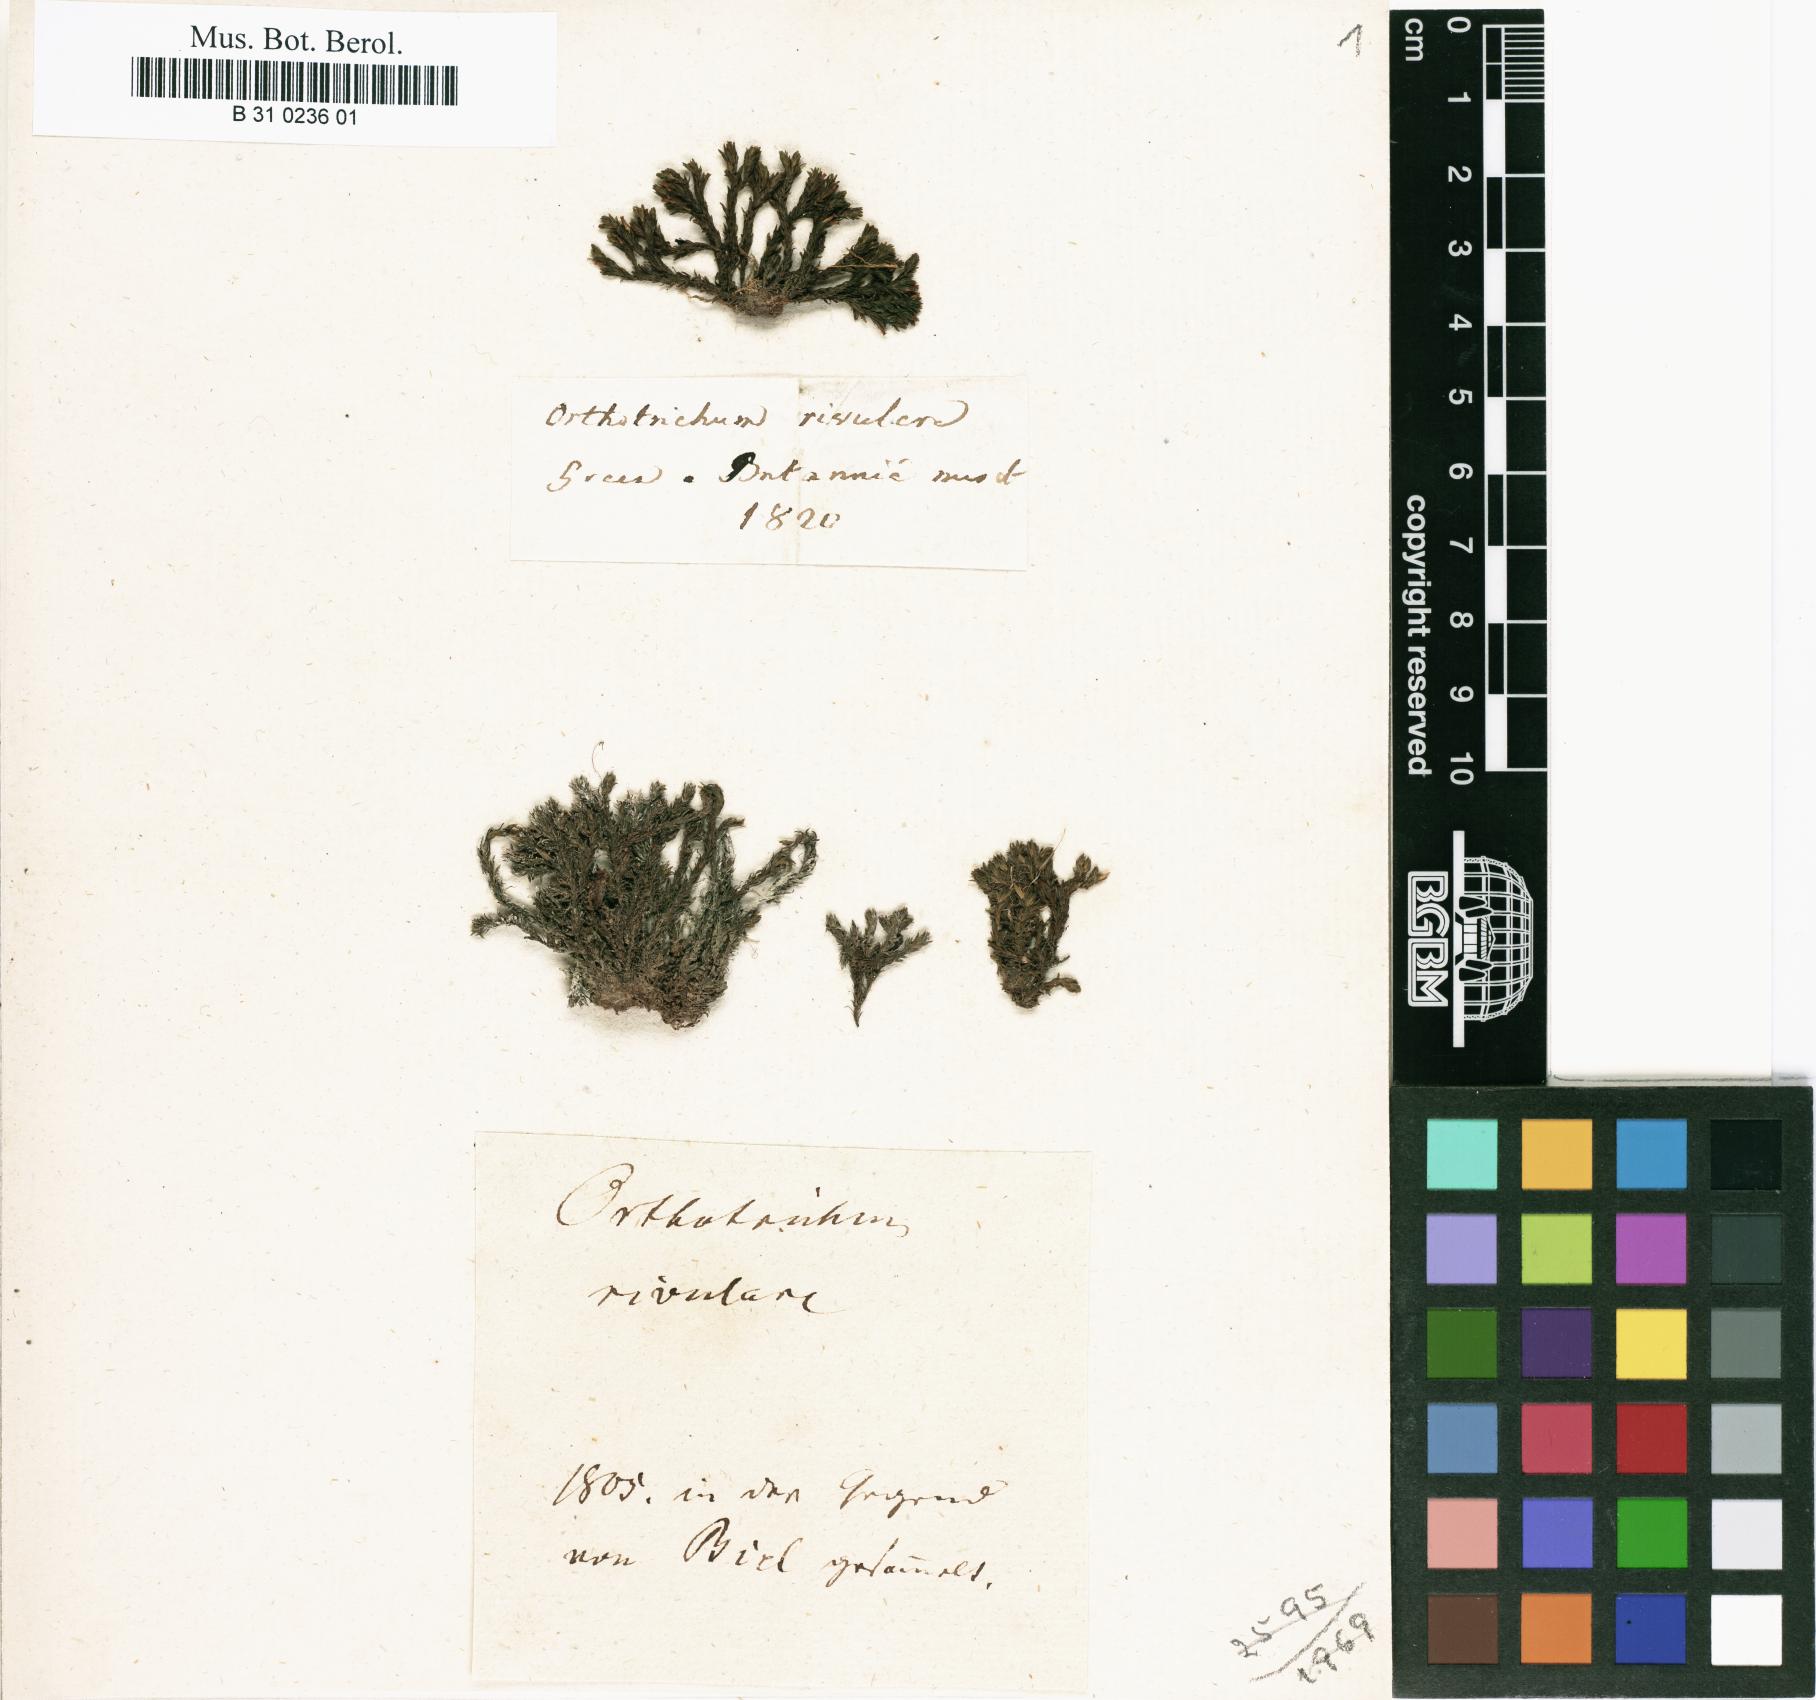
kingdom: Plantae
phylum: Bryophyta
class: Bryopsida
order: Orthotrichales
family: Orthotrichaceae
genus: Orthotrichum
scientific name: Orthotrichum rivulare
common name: River bristle-moss
